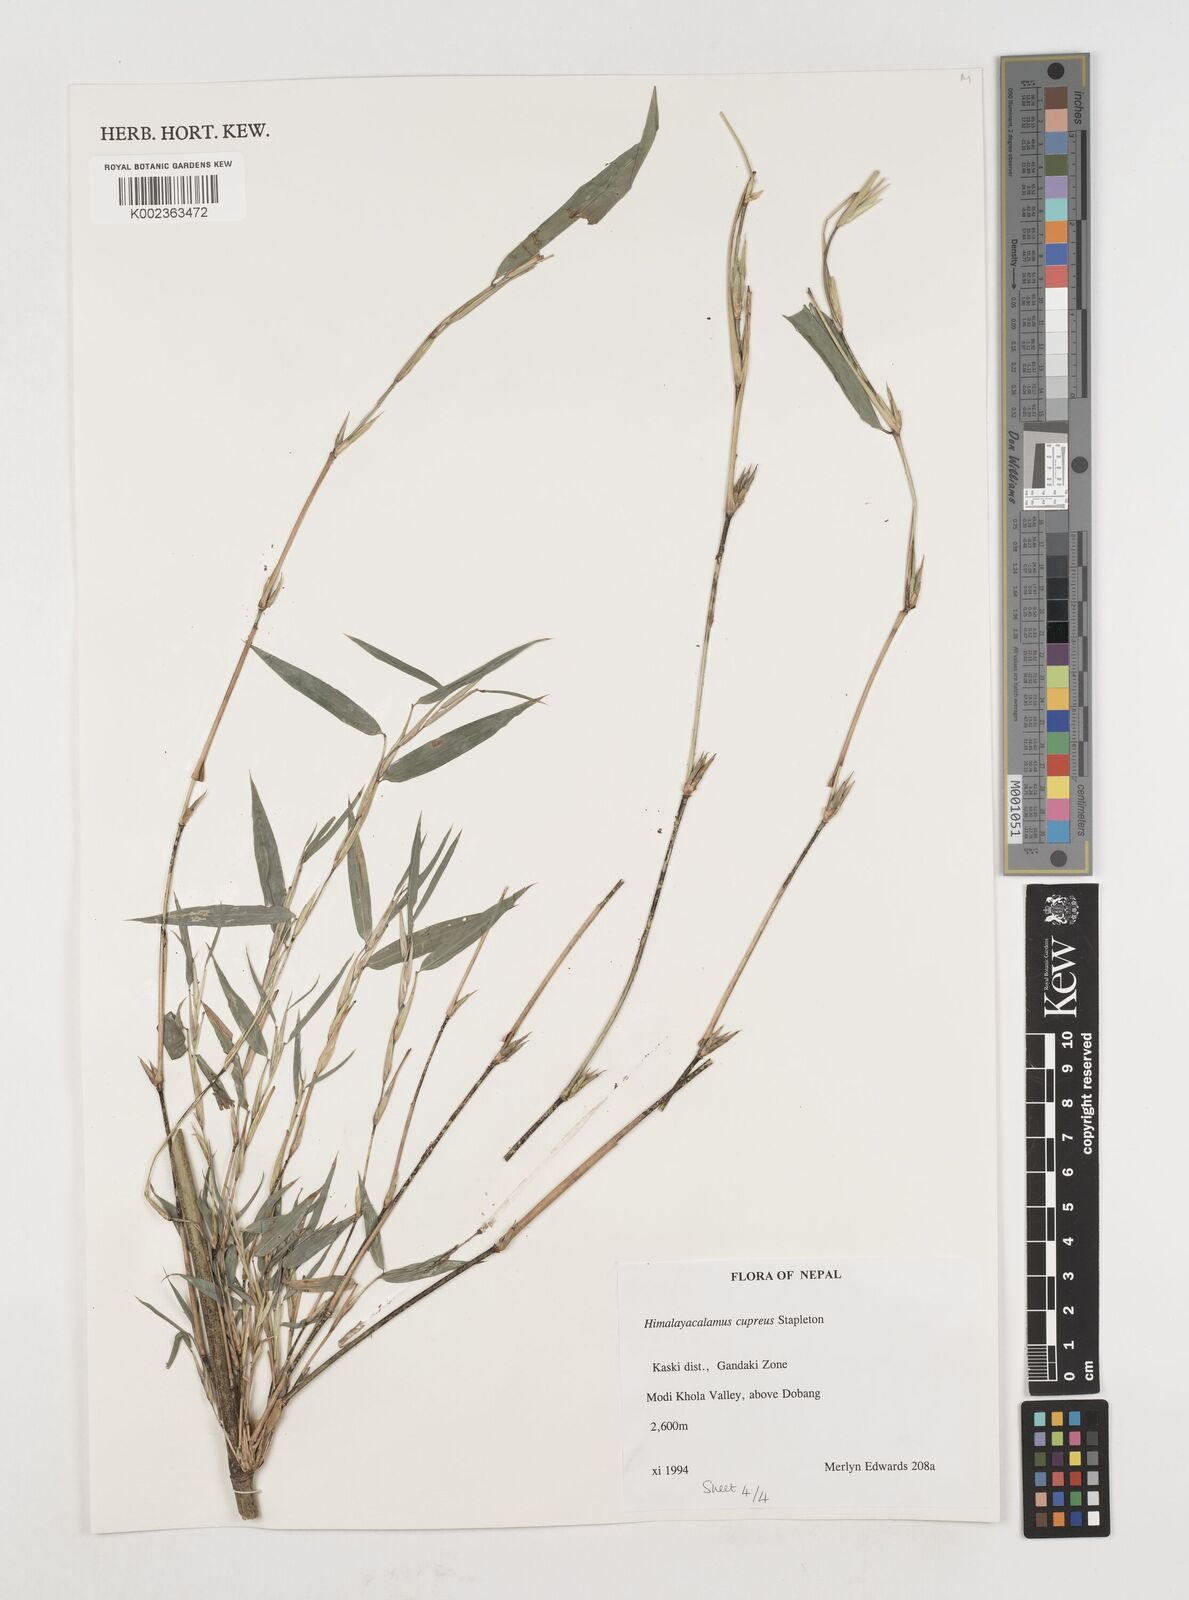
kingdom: Plantae
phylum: Tracheophyta
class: Liliopsida
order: Poales
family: Poaceae
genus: Himalayacalamus
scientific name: Himalayacalamus cupreus
